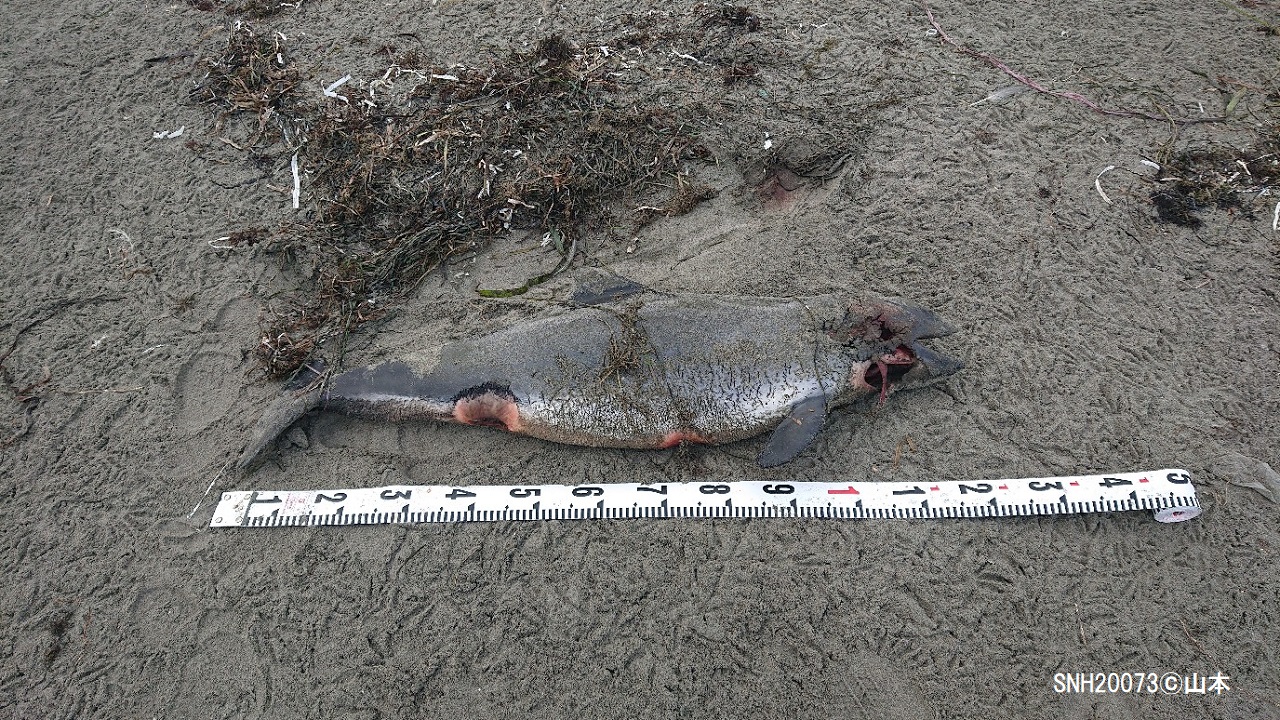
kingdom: Animalia
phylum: Chordata
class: Mammalia
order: Cetacea
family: Phocoenidae
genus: Phocoena
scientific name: Phocoena phocoena
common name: Harbour porpoise
